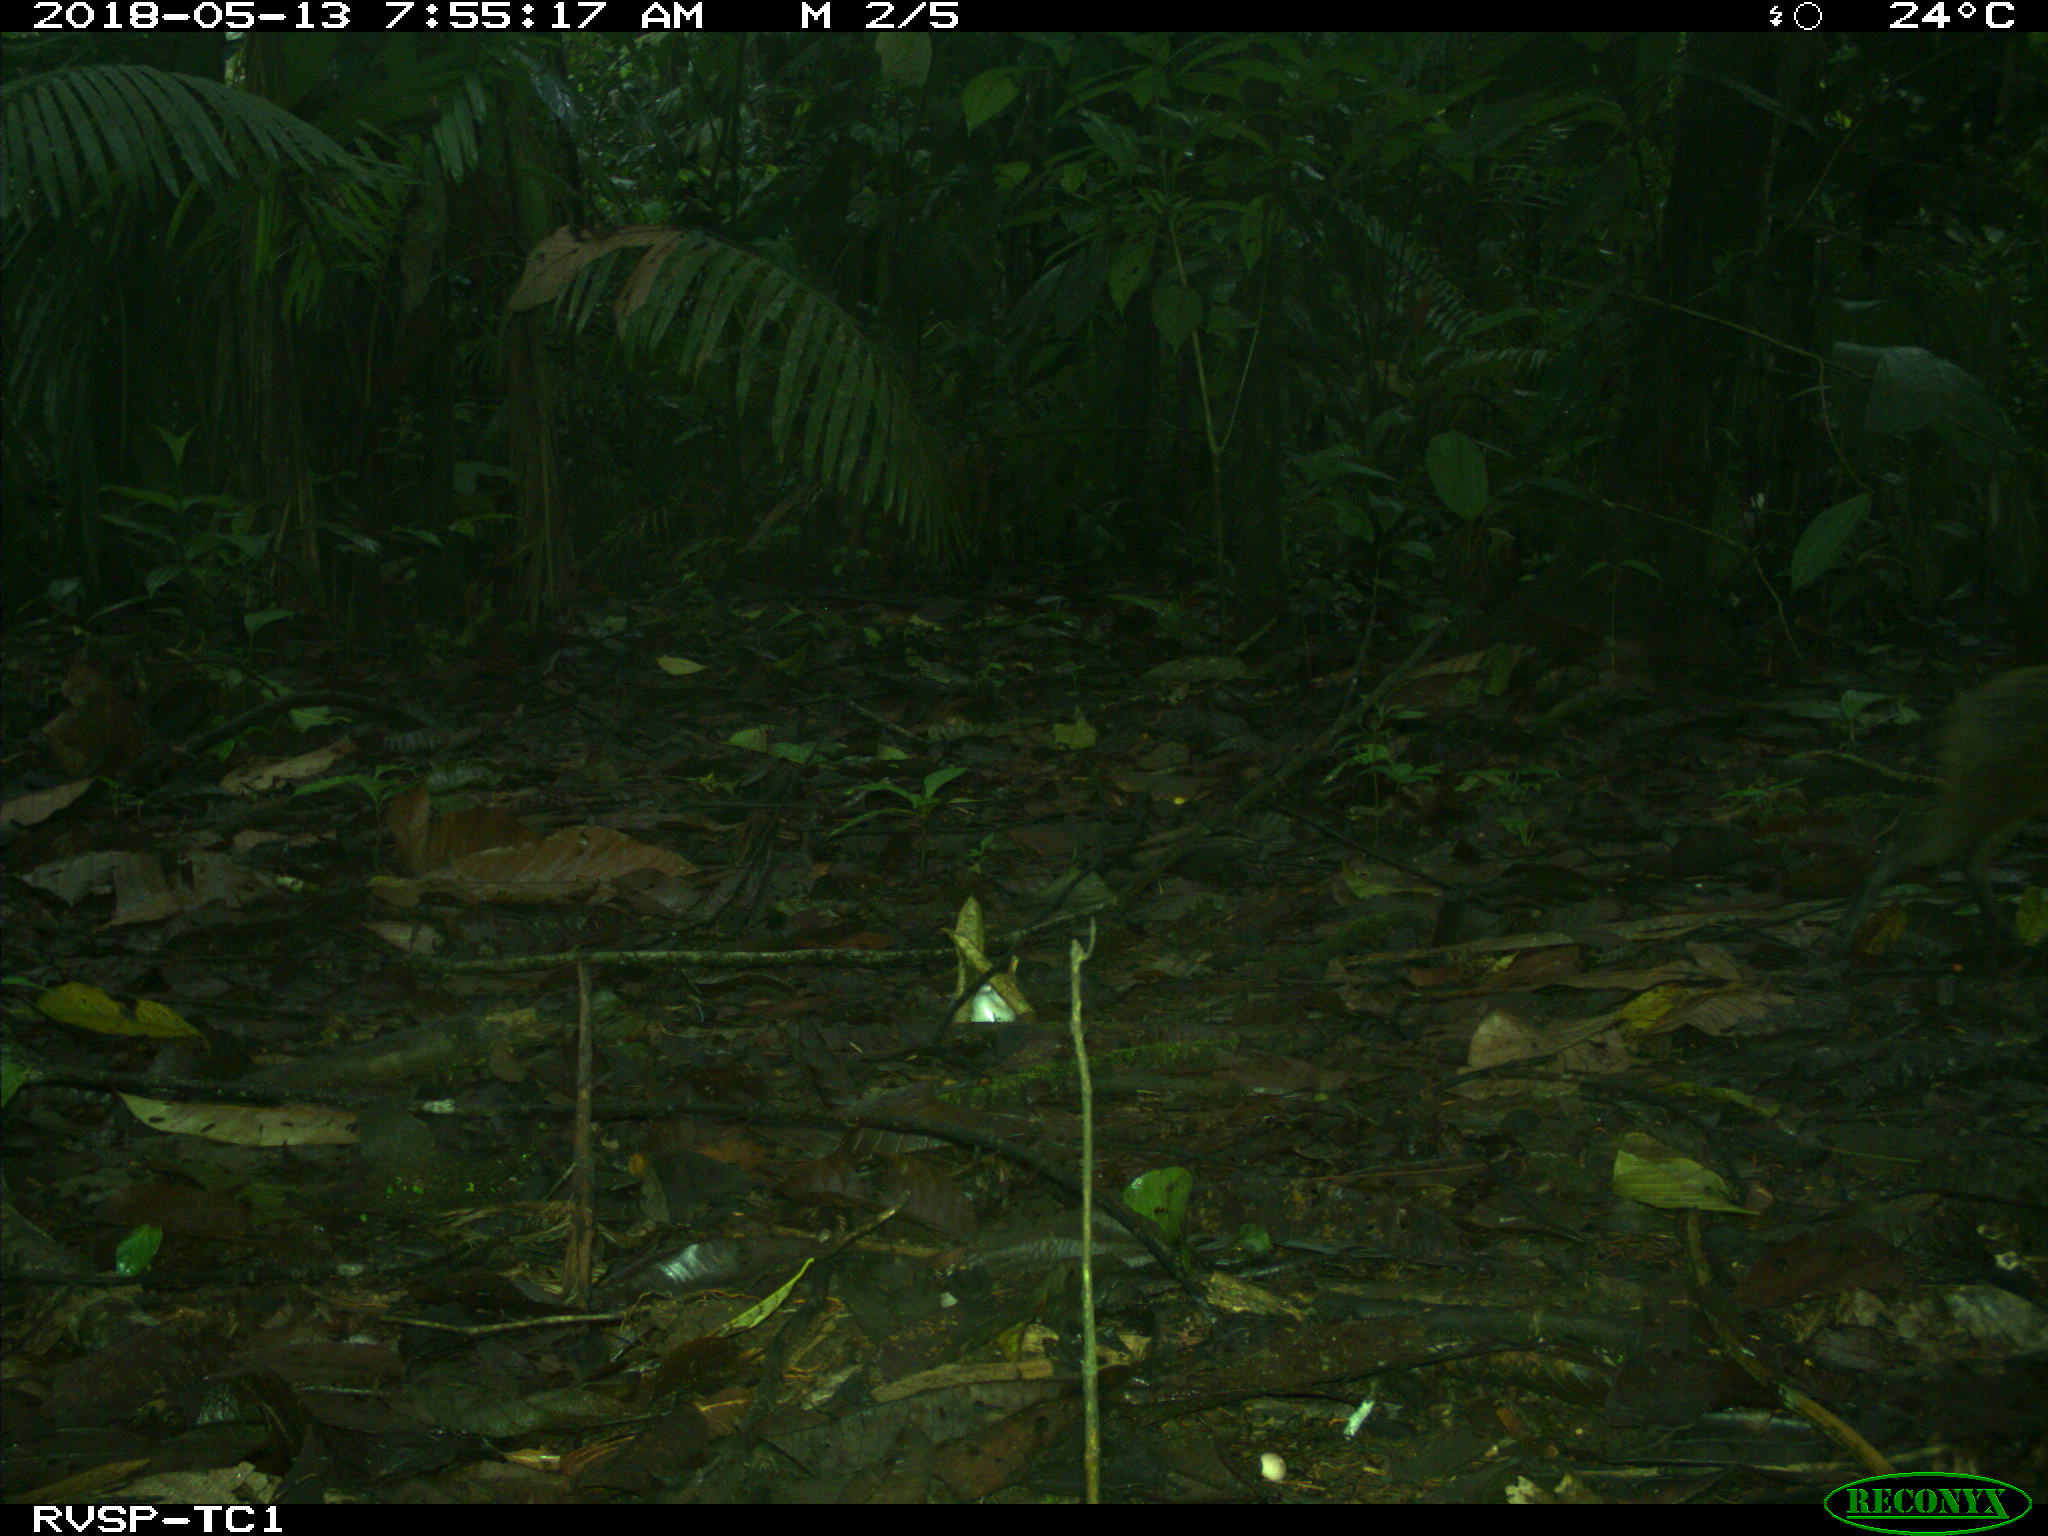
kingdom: Animalia
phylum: Chordata
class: Mammalia
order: Rodentia
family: Dasyproctidae
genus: Dasyprocta
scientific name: Dasyprocta punctata
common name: Central american agouti
